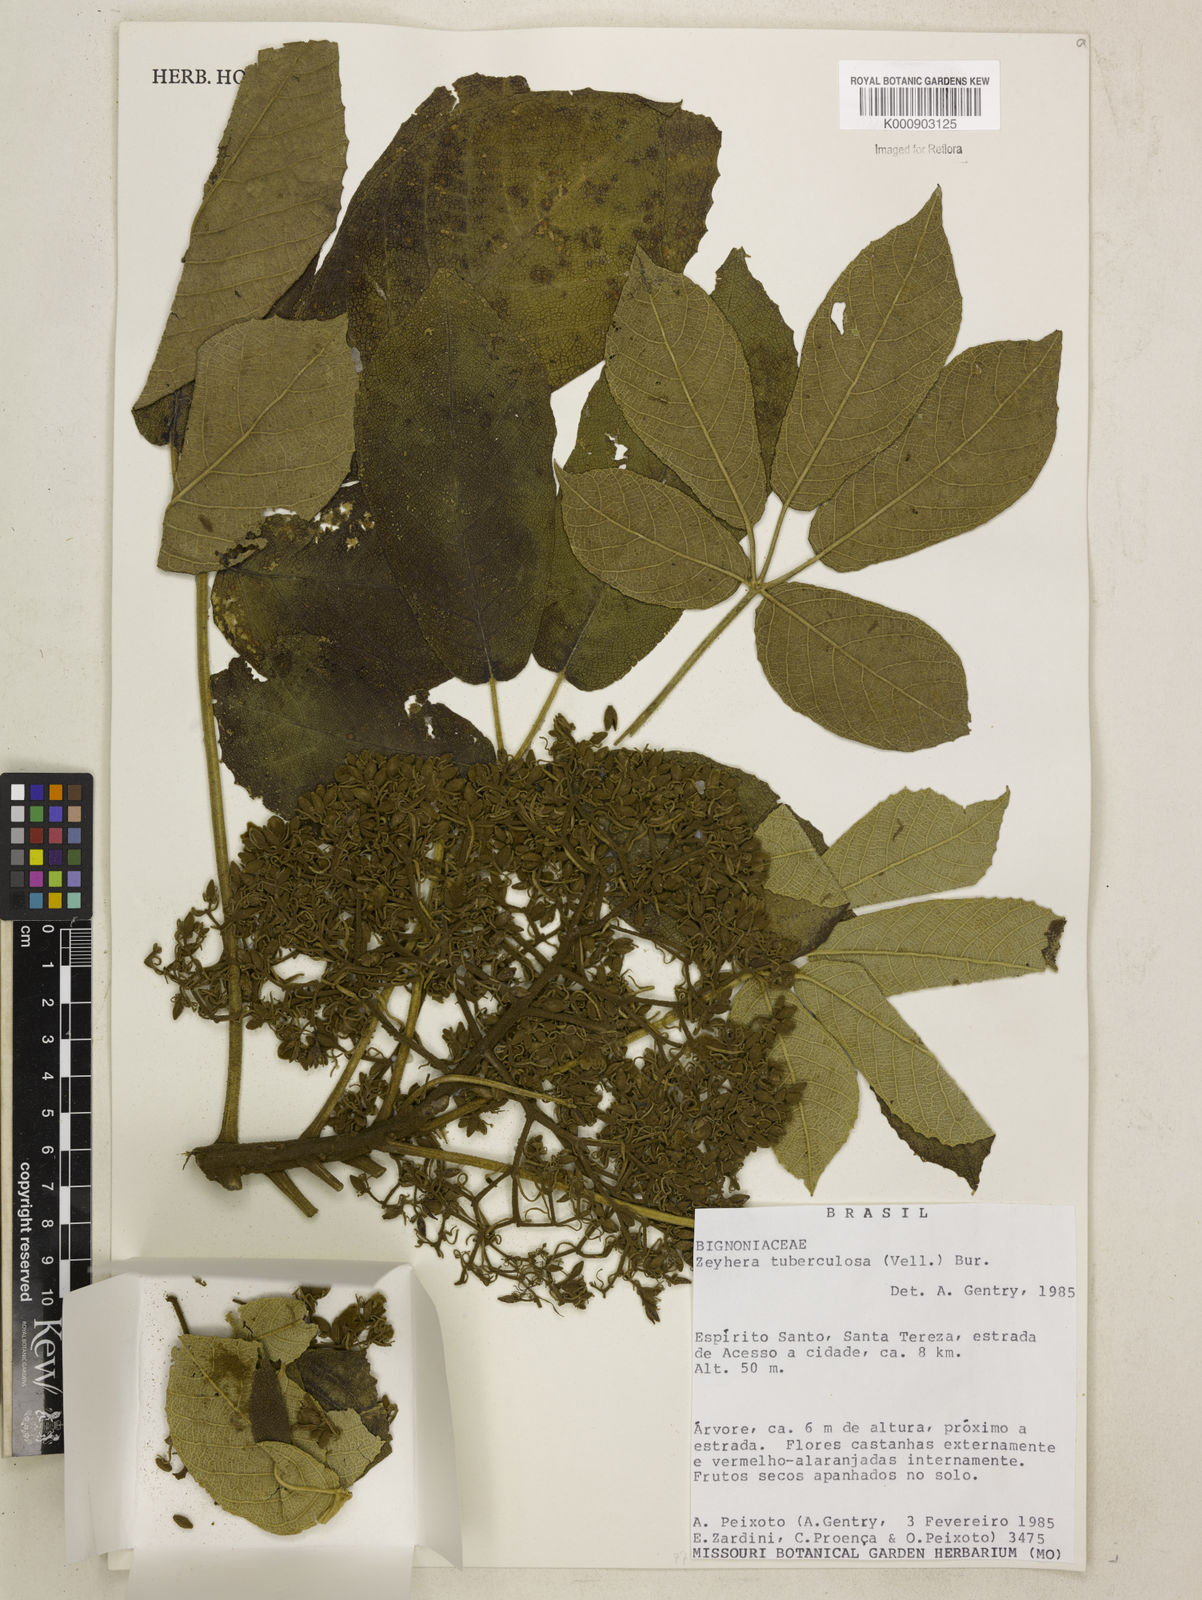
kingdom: Plantae
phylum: Tracheophyta
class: Magnoliopsida
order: Lamiales
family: Bignoniaceae
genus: Zeyheria
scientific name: Zeyheria
